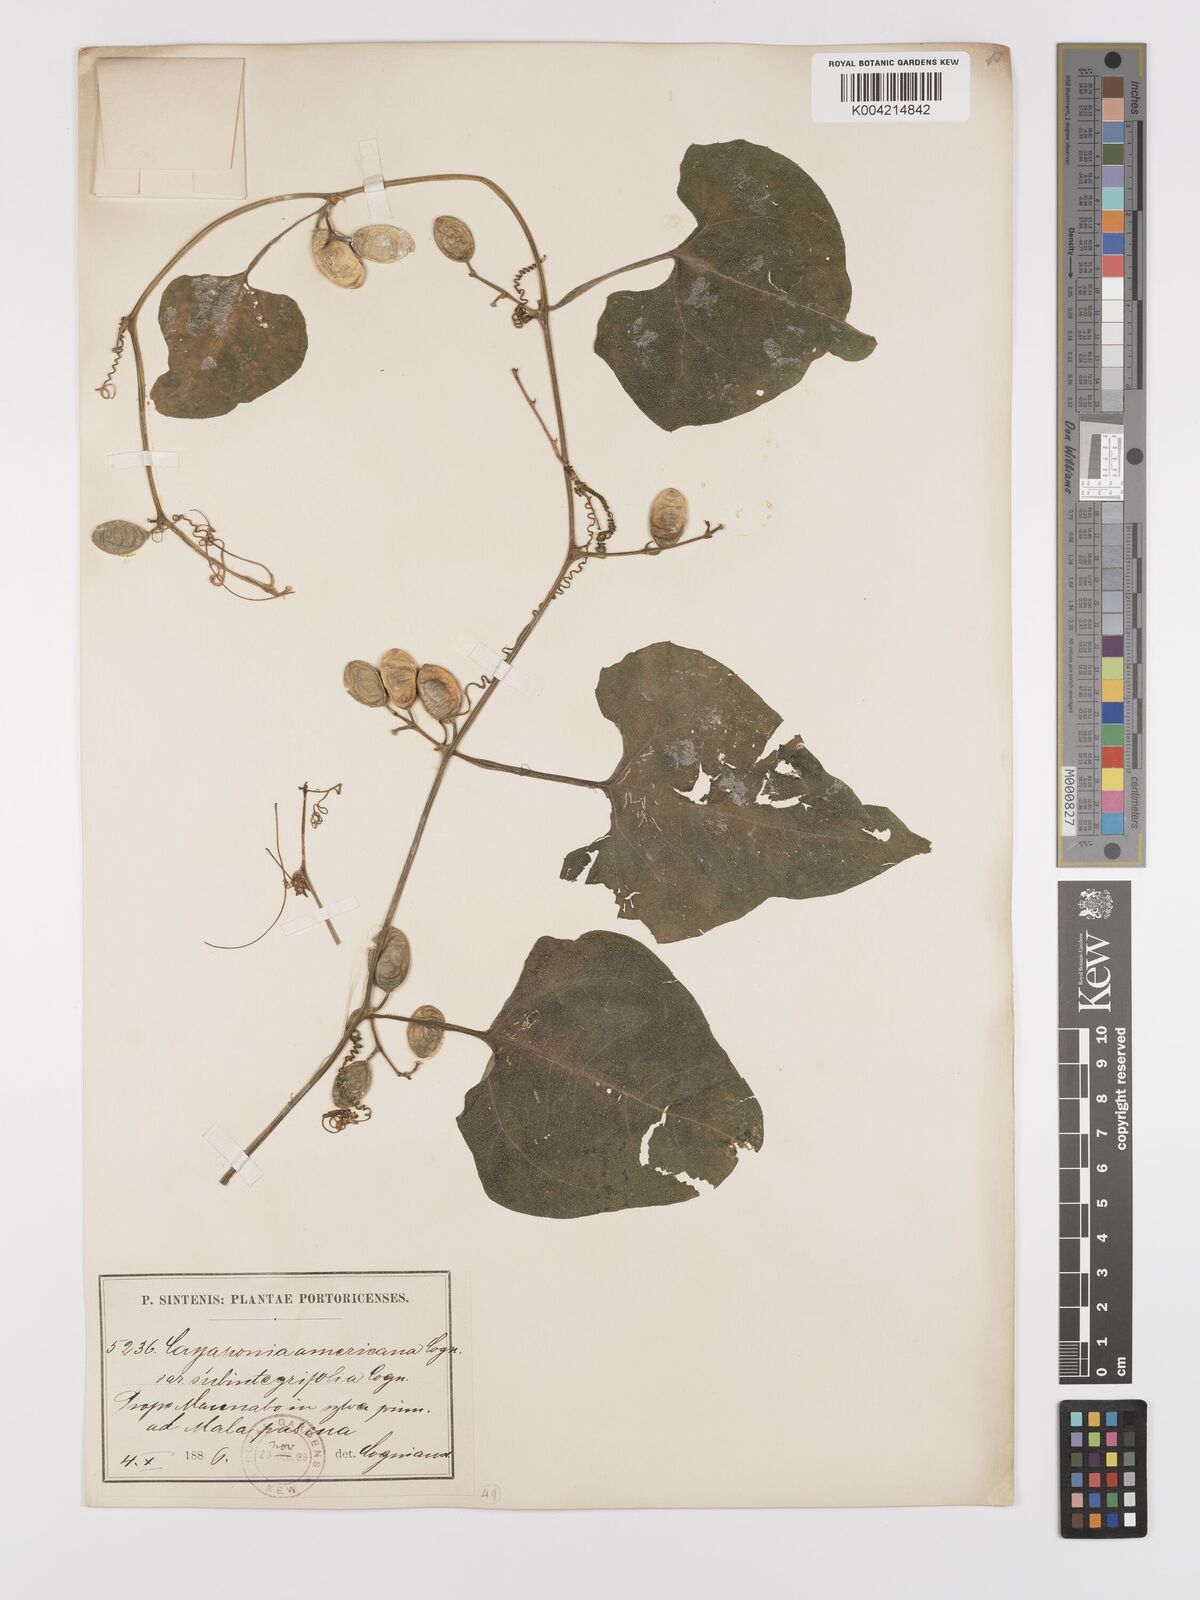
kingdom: Plantae
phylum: Tracheophyta
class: Magnoliopsida
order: Cucurbitales
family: Cucurbitaceae
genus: Cayaponia
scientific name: Cayaponia americana
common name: American melonleaf
